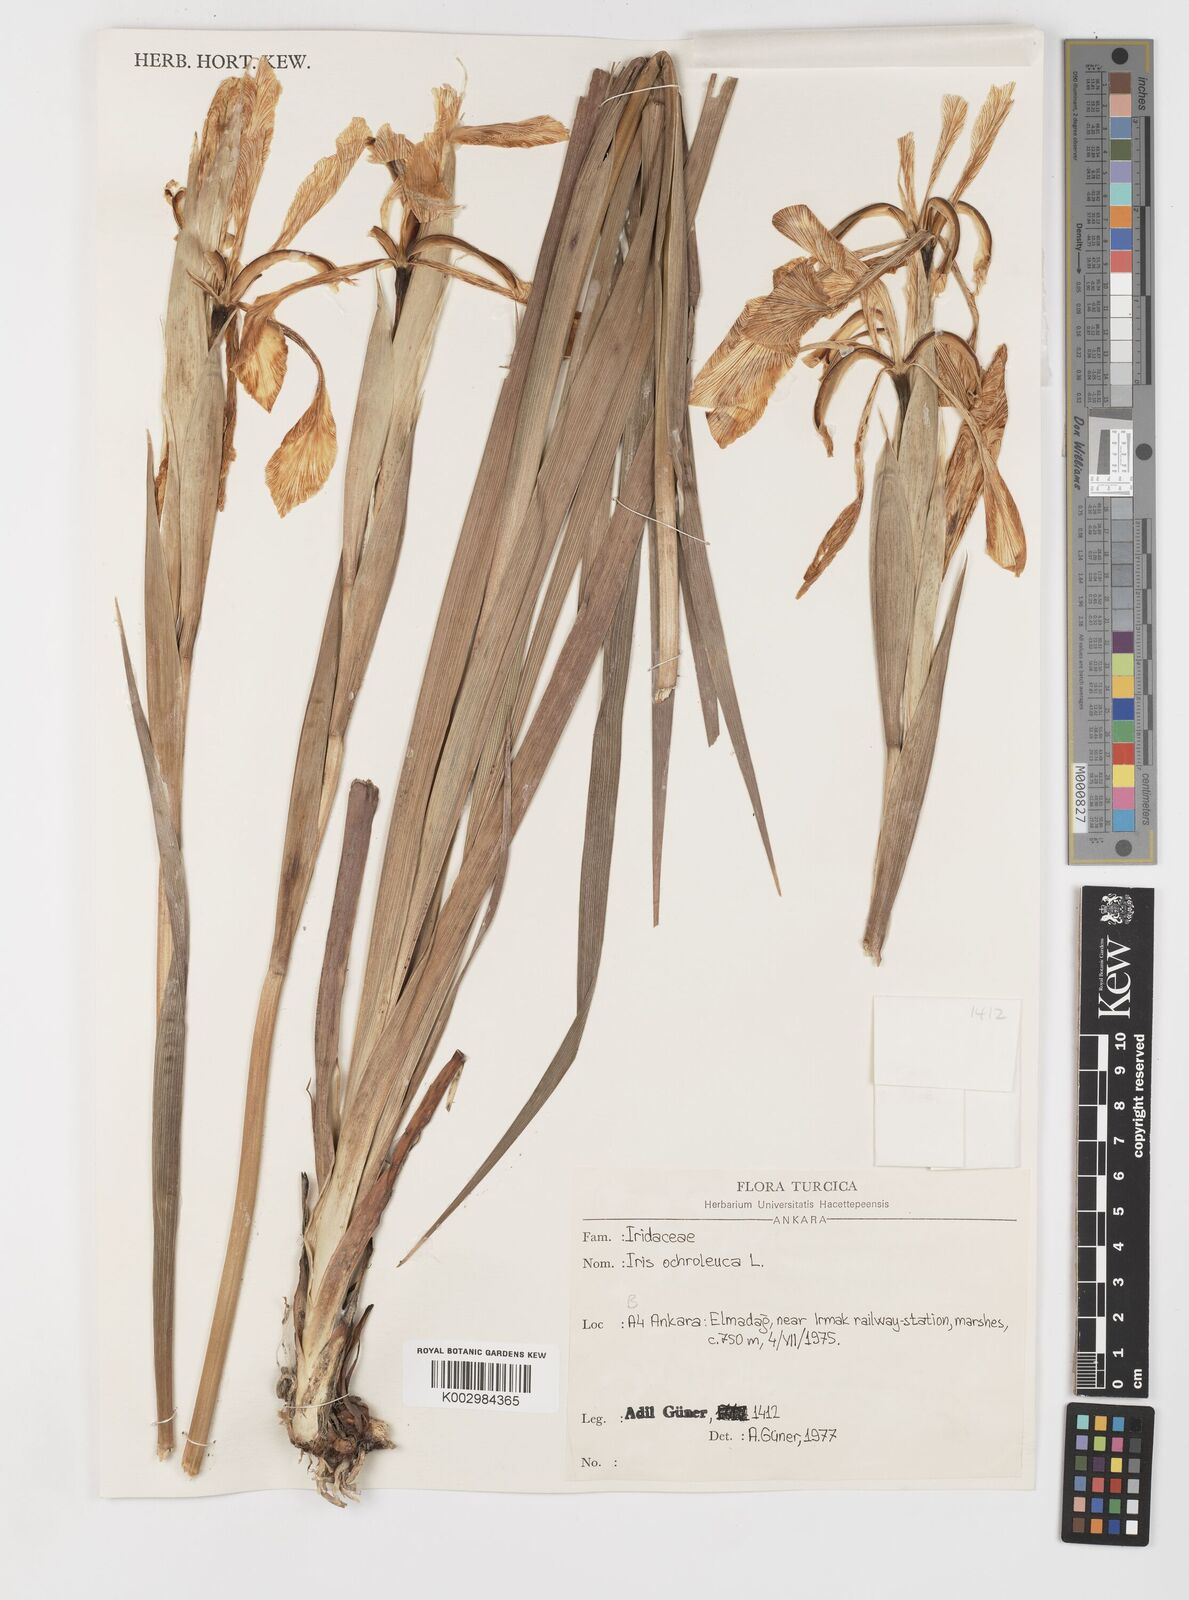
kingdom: Plantae
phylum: Tracheophyta
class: Liliopsida
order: Asparagales
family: Iridaceae
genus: Iris
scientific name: Iris orientalis
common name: Turkish iris
